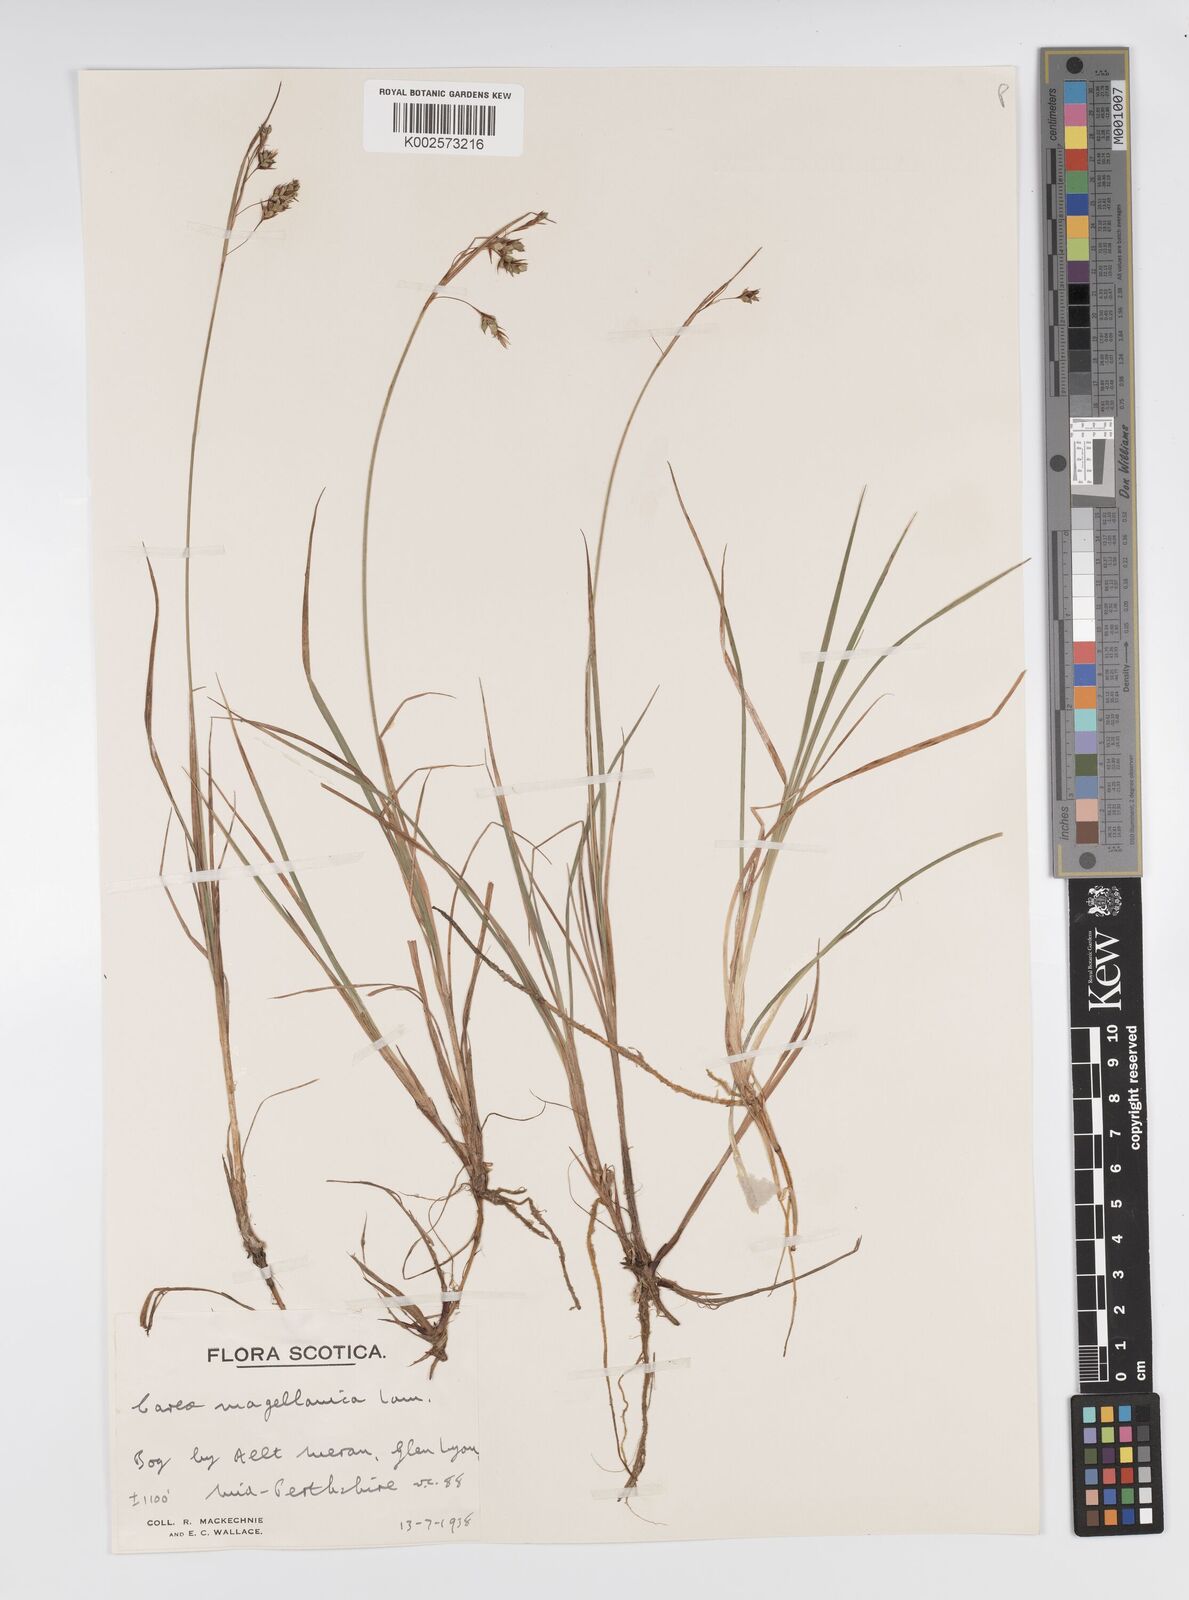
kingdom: Plantae
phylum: Tracheophyta
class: Liliopsida
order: Poales
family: Cyperaceae
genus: Carex
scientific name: Carex magellanica
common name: Bog sedge
